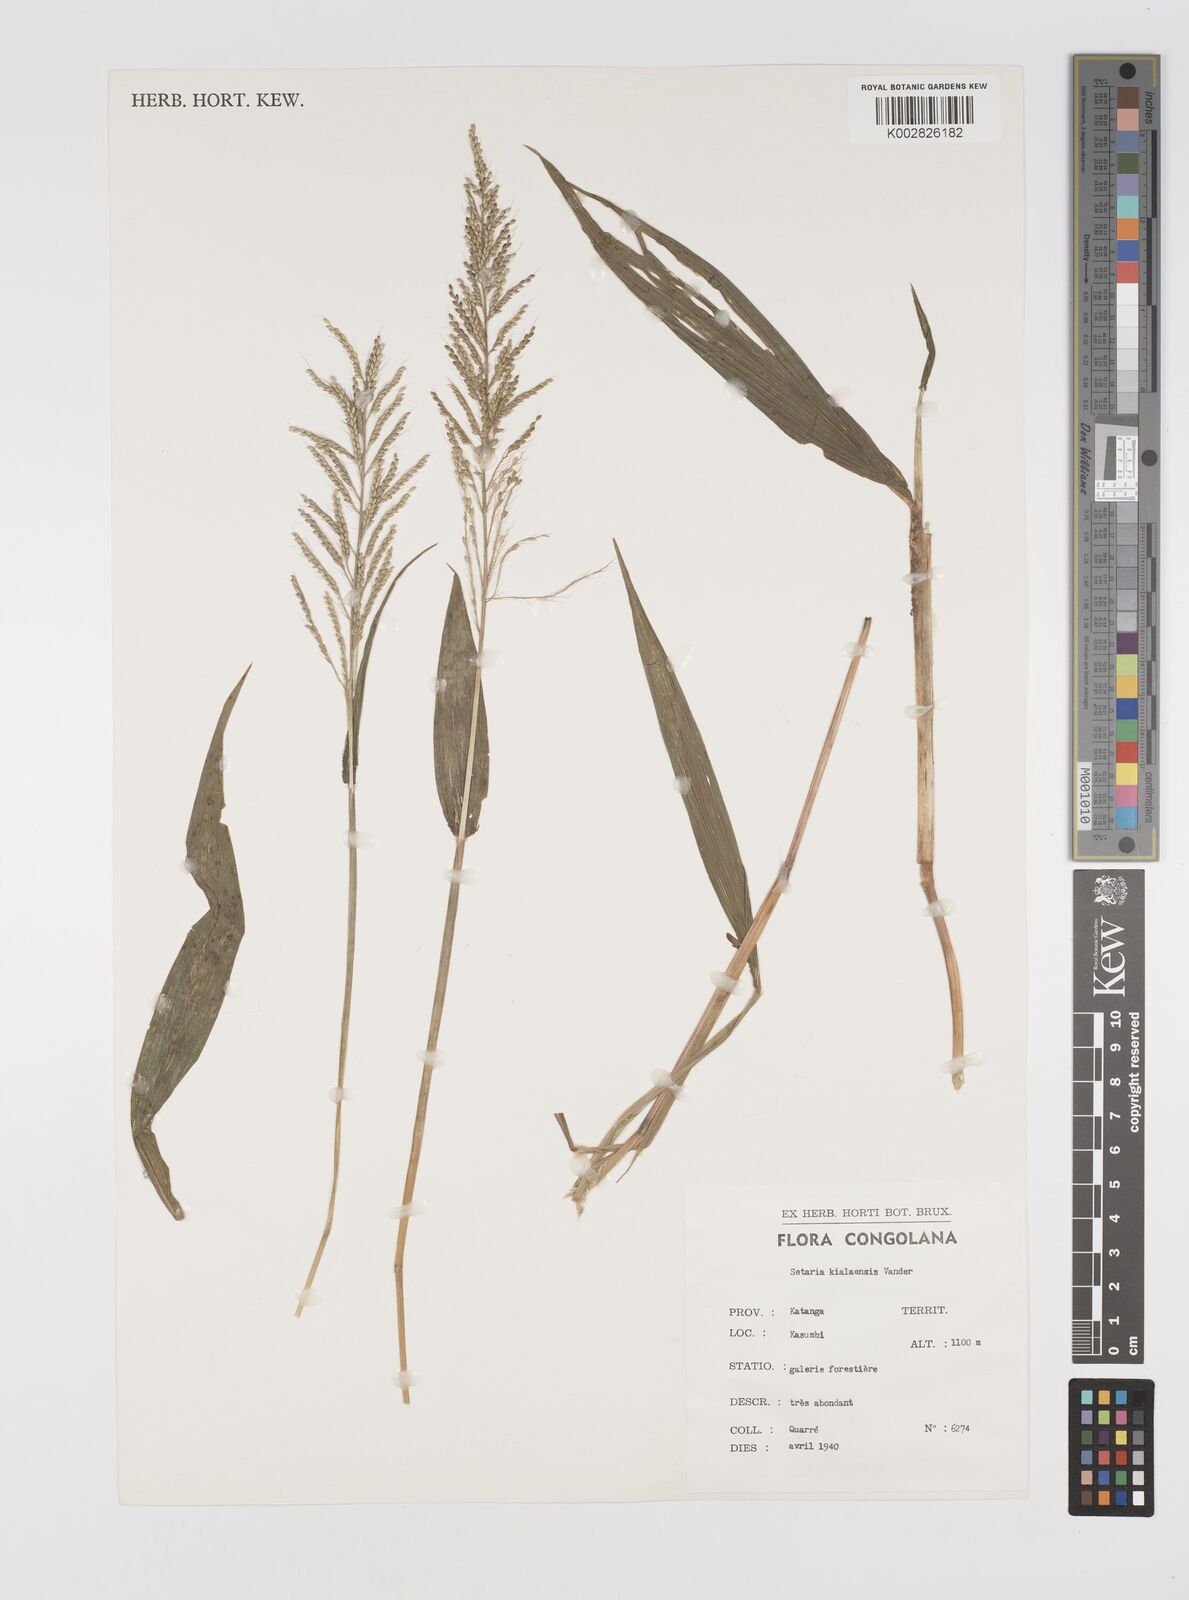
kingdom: Plantae
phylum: Tracheophyta
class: Liliopsida
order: Poales
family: Poaceae
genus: Setaria
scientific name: Setaria homonyma
